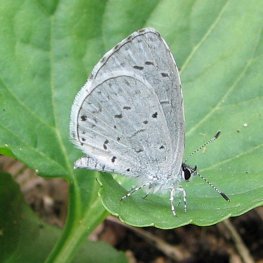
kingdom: Animalia
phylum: Arthropoda
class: Insecta
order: Lepidoptera
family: Lycaenidae
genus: Cyaniris
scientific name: Cyaniris neglecta
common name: Summer Azure
